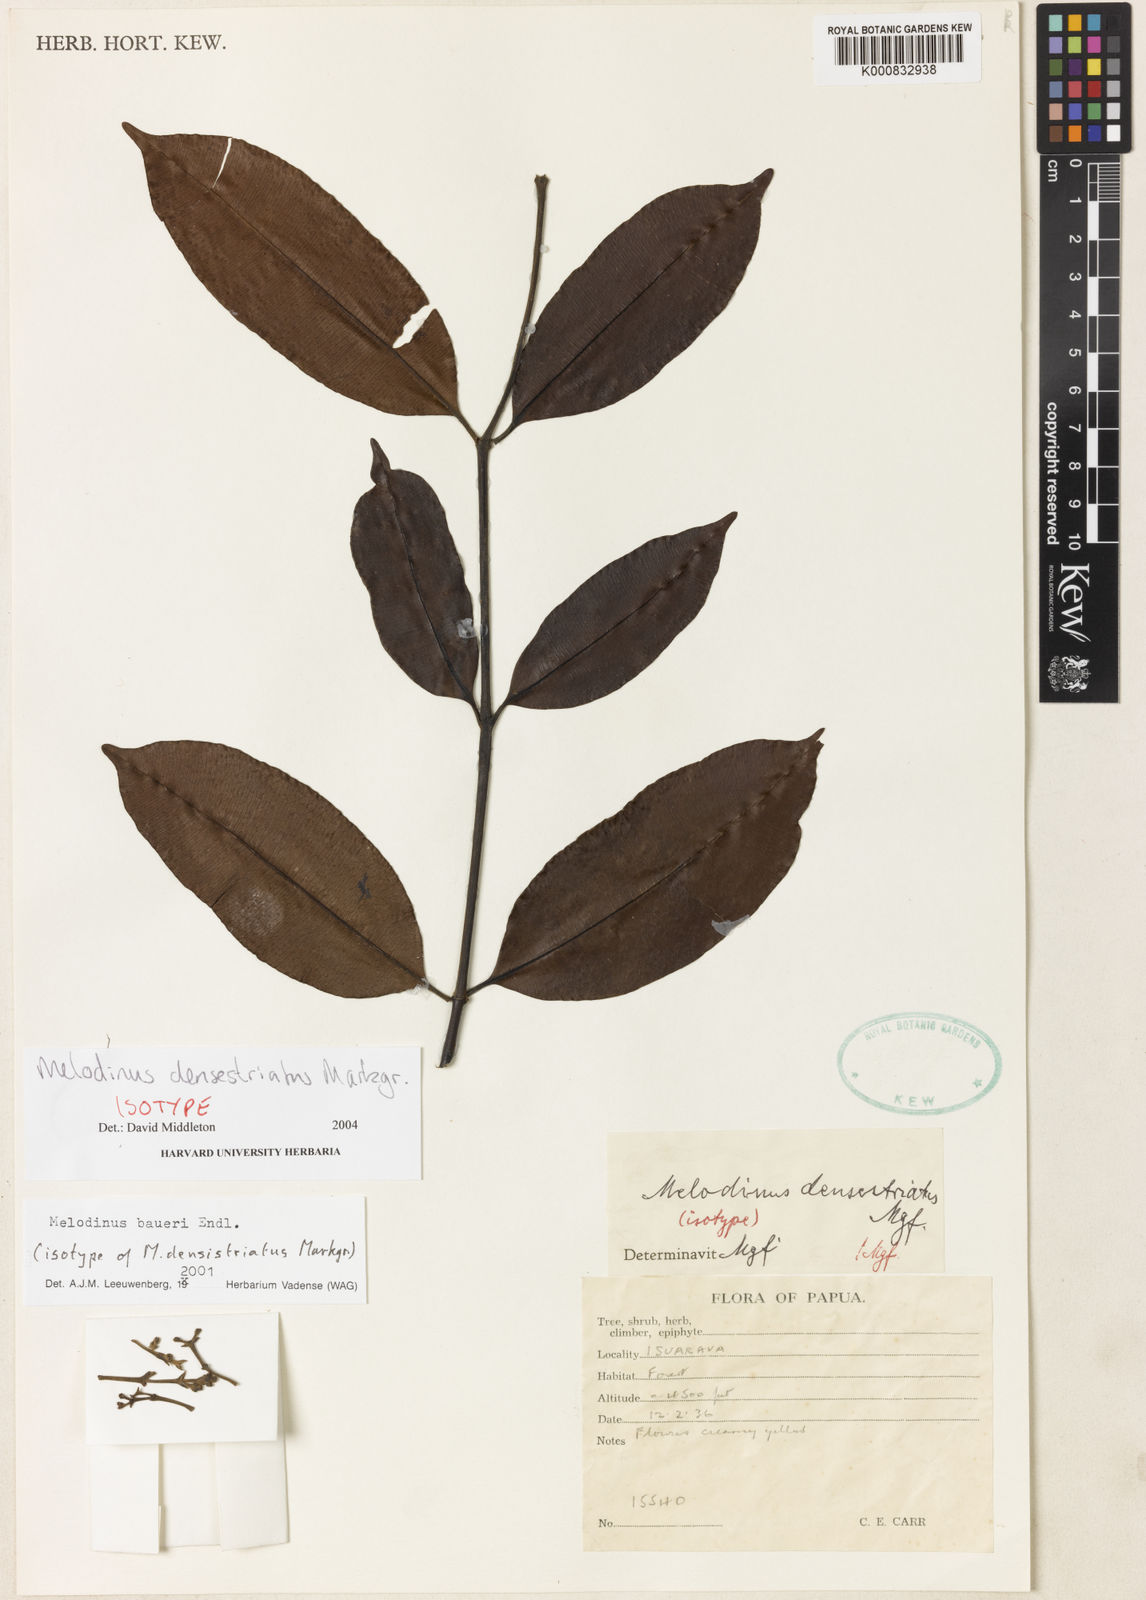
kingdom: Plantae
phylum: Tracheophyta
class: Magnoliopsida
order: Gentianales
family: Apocynaceae
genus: Melodinus
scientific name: Melodinus baueri
